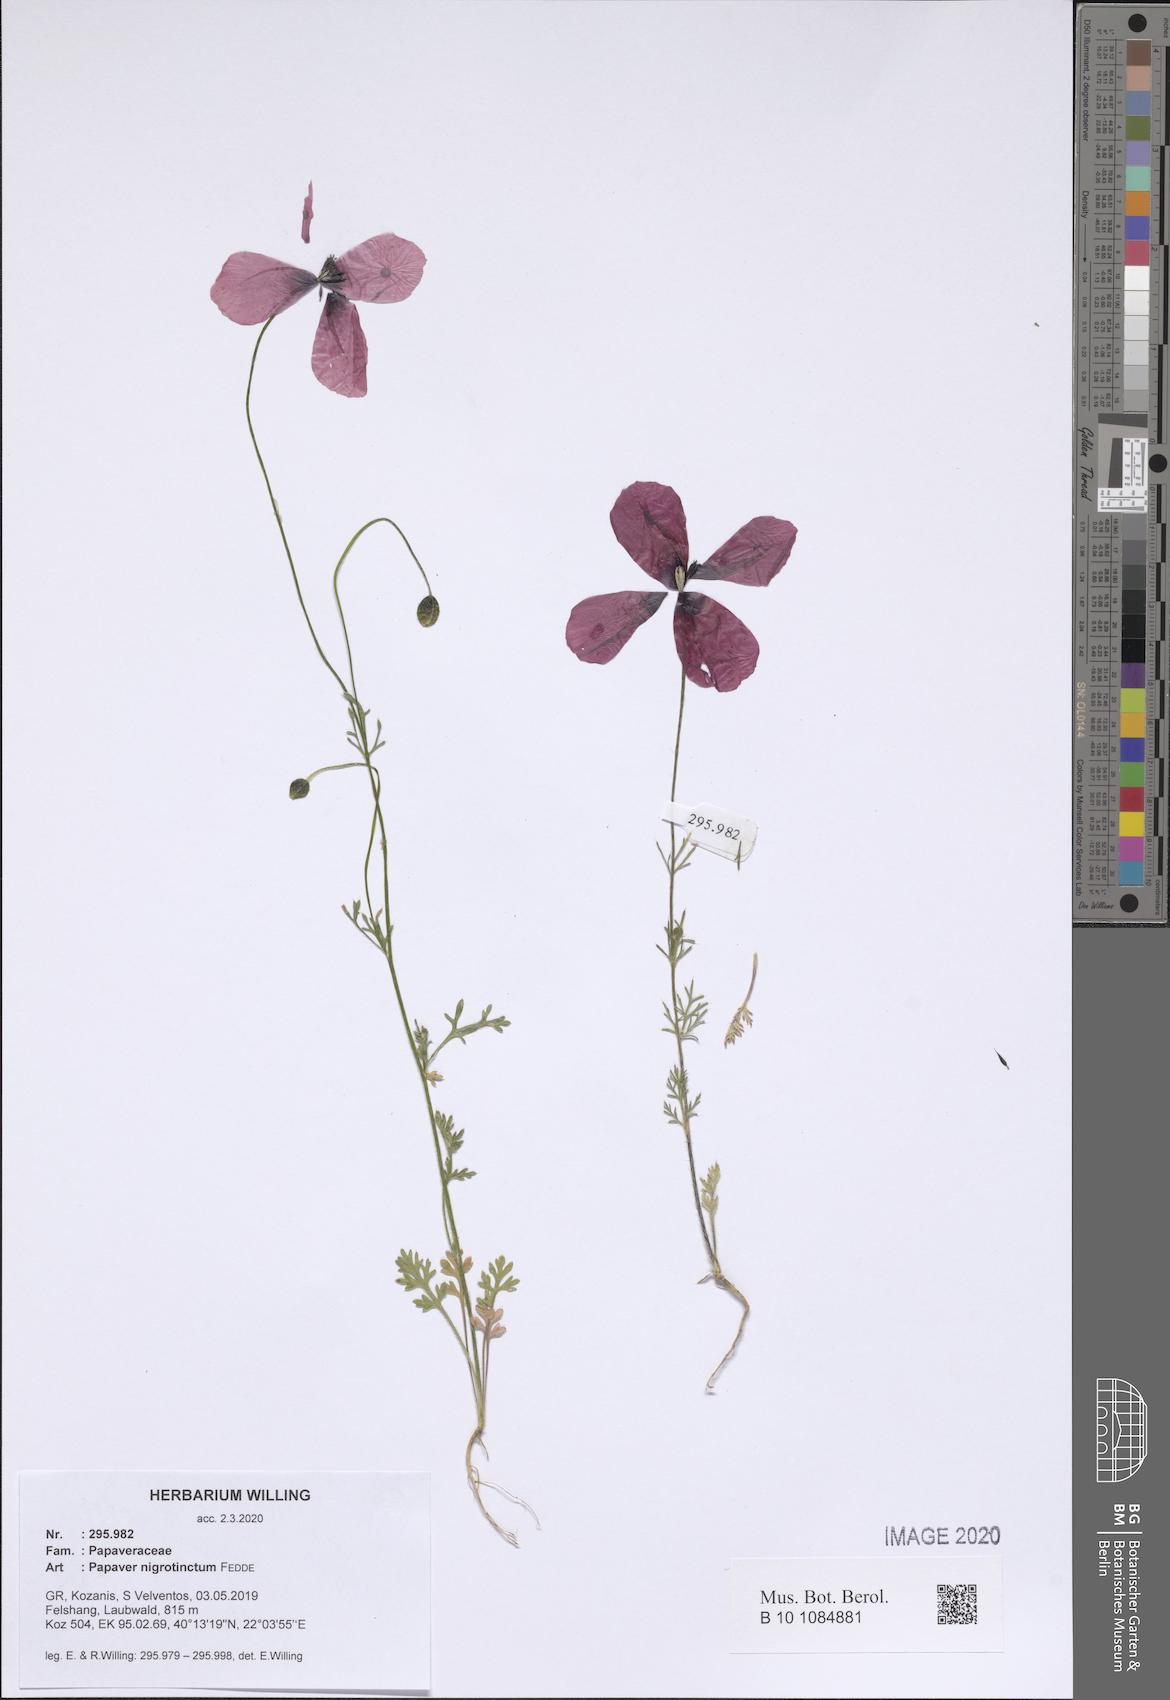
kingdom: Plantae
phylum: Tracheophyta
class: Magnoliopsida
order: Ranunculales
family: Papaveraceae
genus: Roemeria
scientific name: Roemeria nigrotincta
